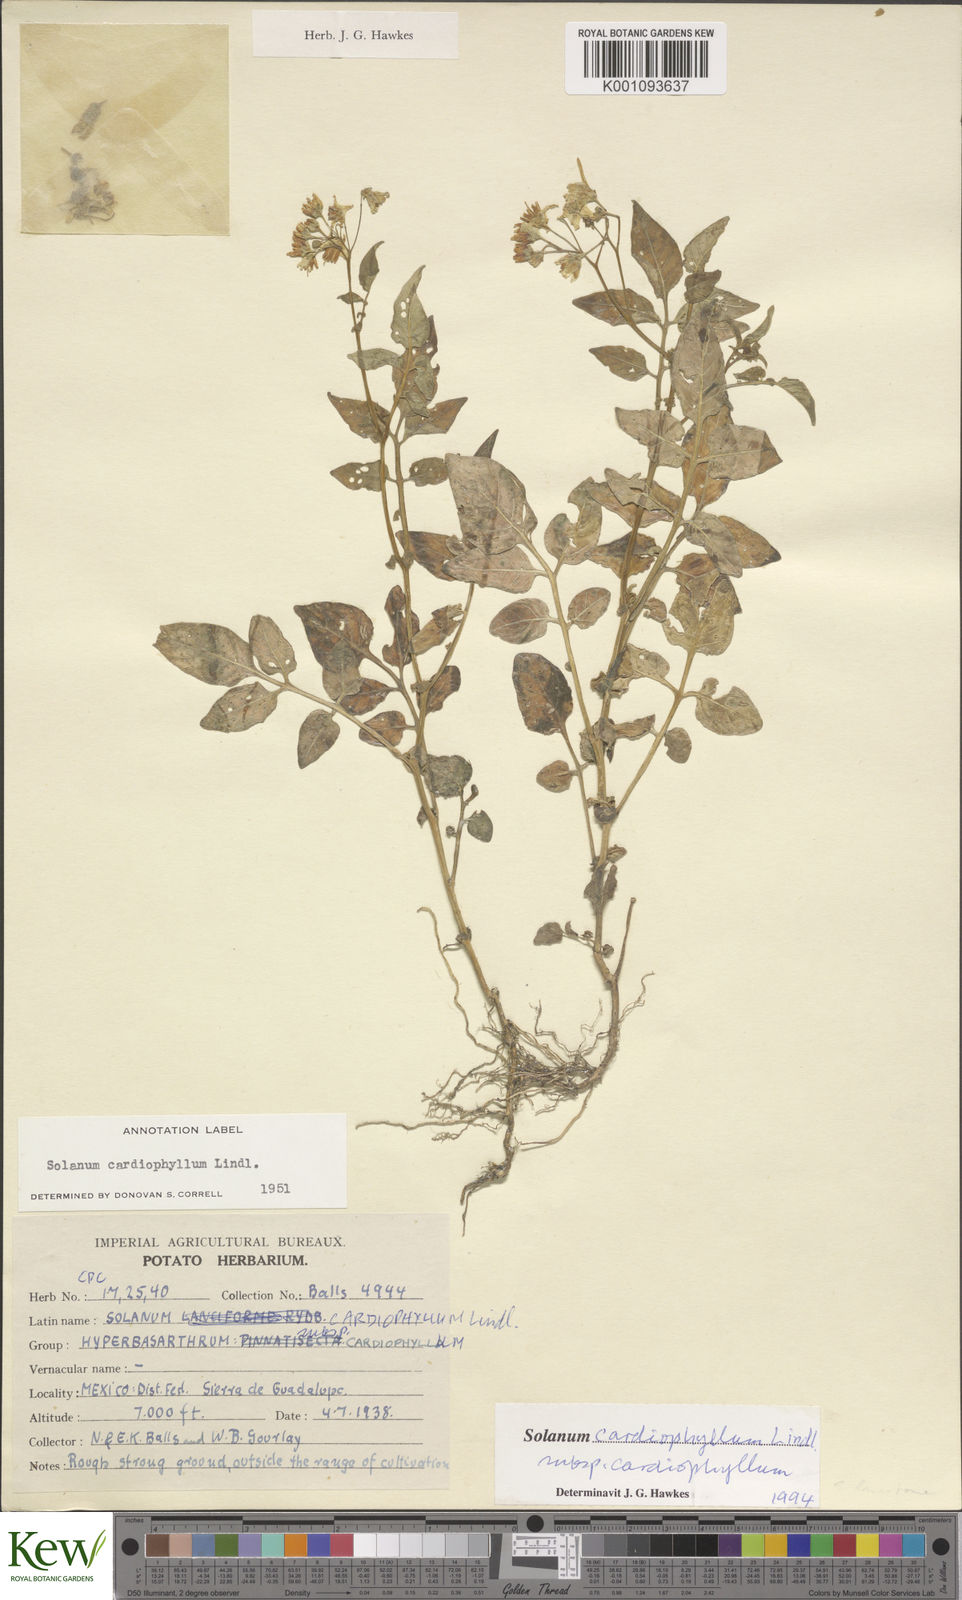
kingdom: Plantae
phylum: Tracheophyta
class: Magnoliopsida
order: Solanales
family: Solanaceae
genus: Solanum
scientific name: Solanum cardiophyllum
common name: Heartleaf horsenettle
